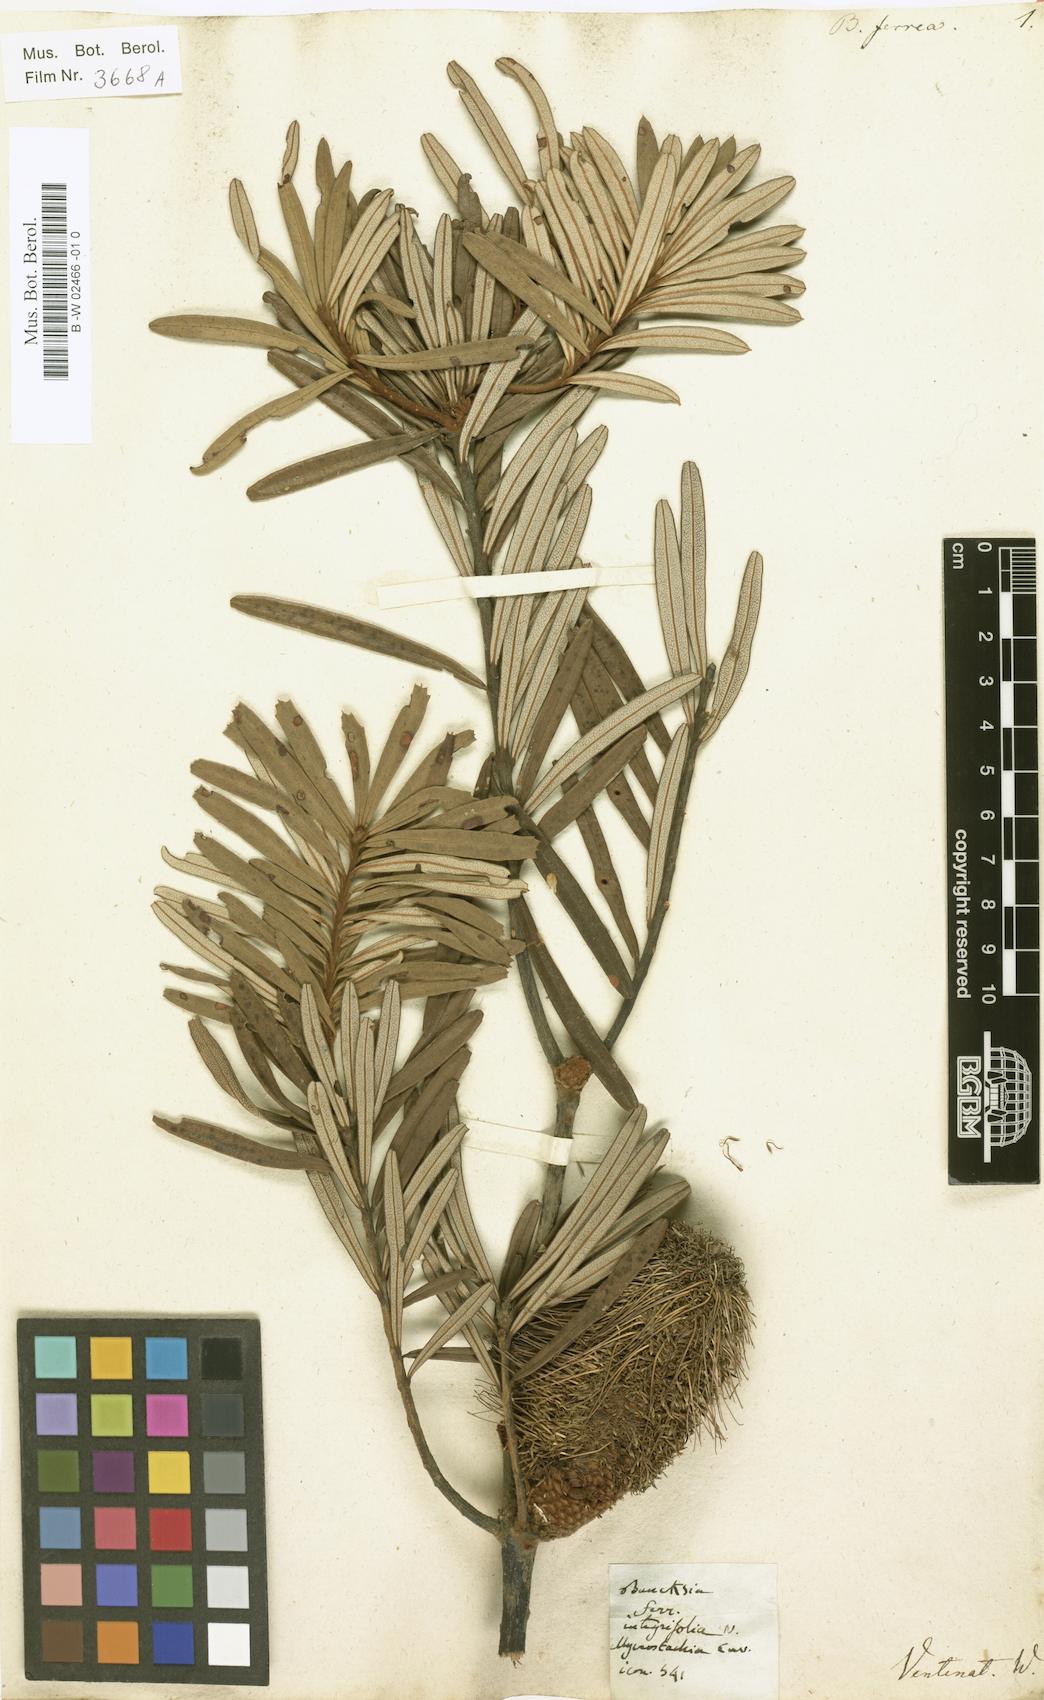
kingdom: Plantae
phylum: Tracheophyta
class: Magnoliopsida
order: Proteales
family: Proteaceae
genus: Banksia
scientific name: Banksia marginata
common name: Silver banksia
